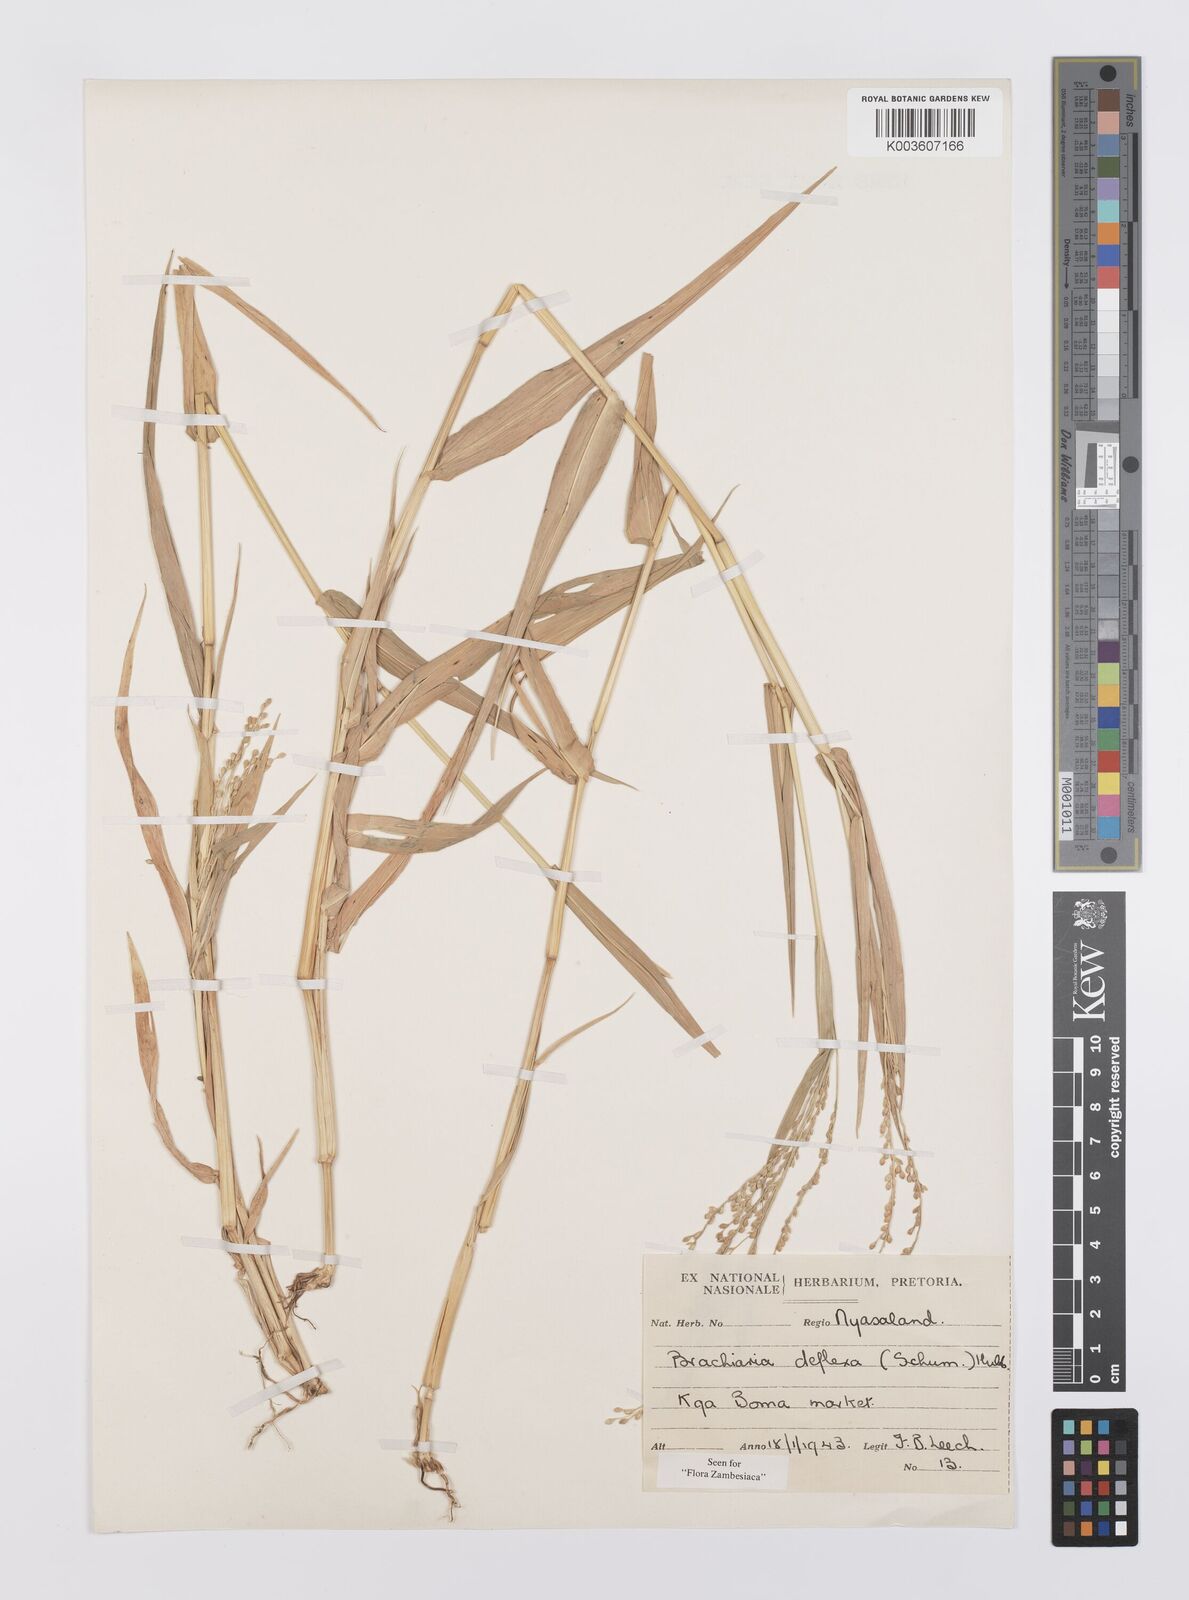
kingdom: Plantae
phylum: Tracheophyta
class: Liliopsida
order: Poales
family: Poaceae
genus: Urochloa
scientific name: Urochloa deflexa
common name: Guinea millet
